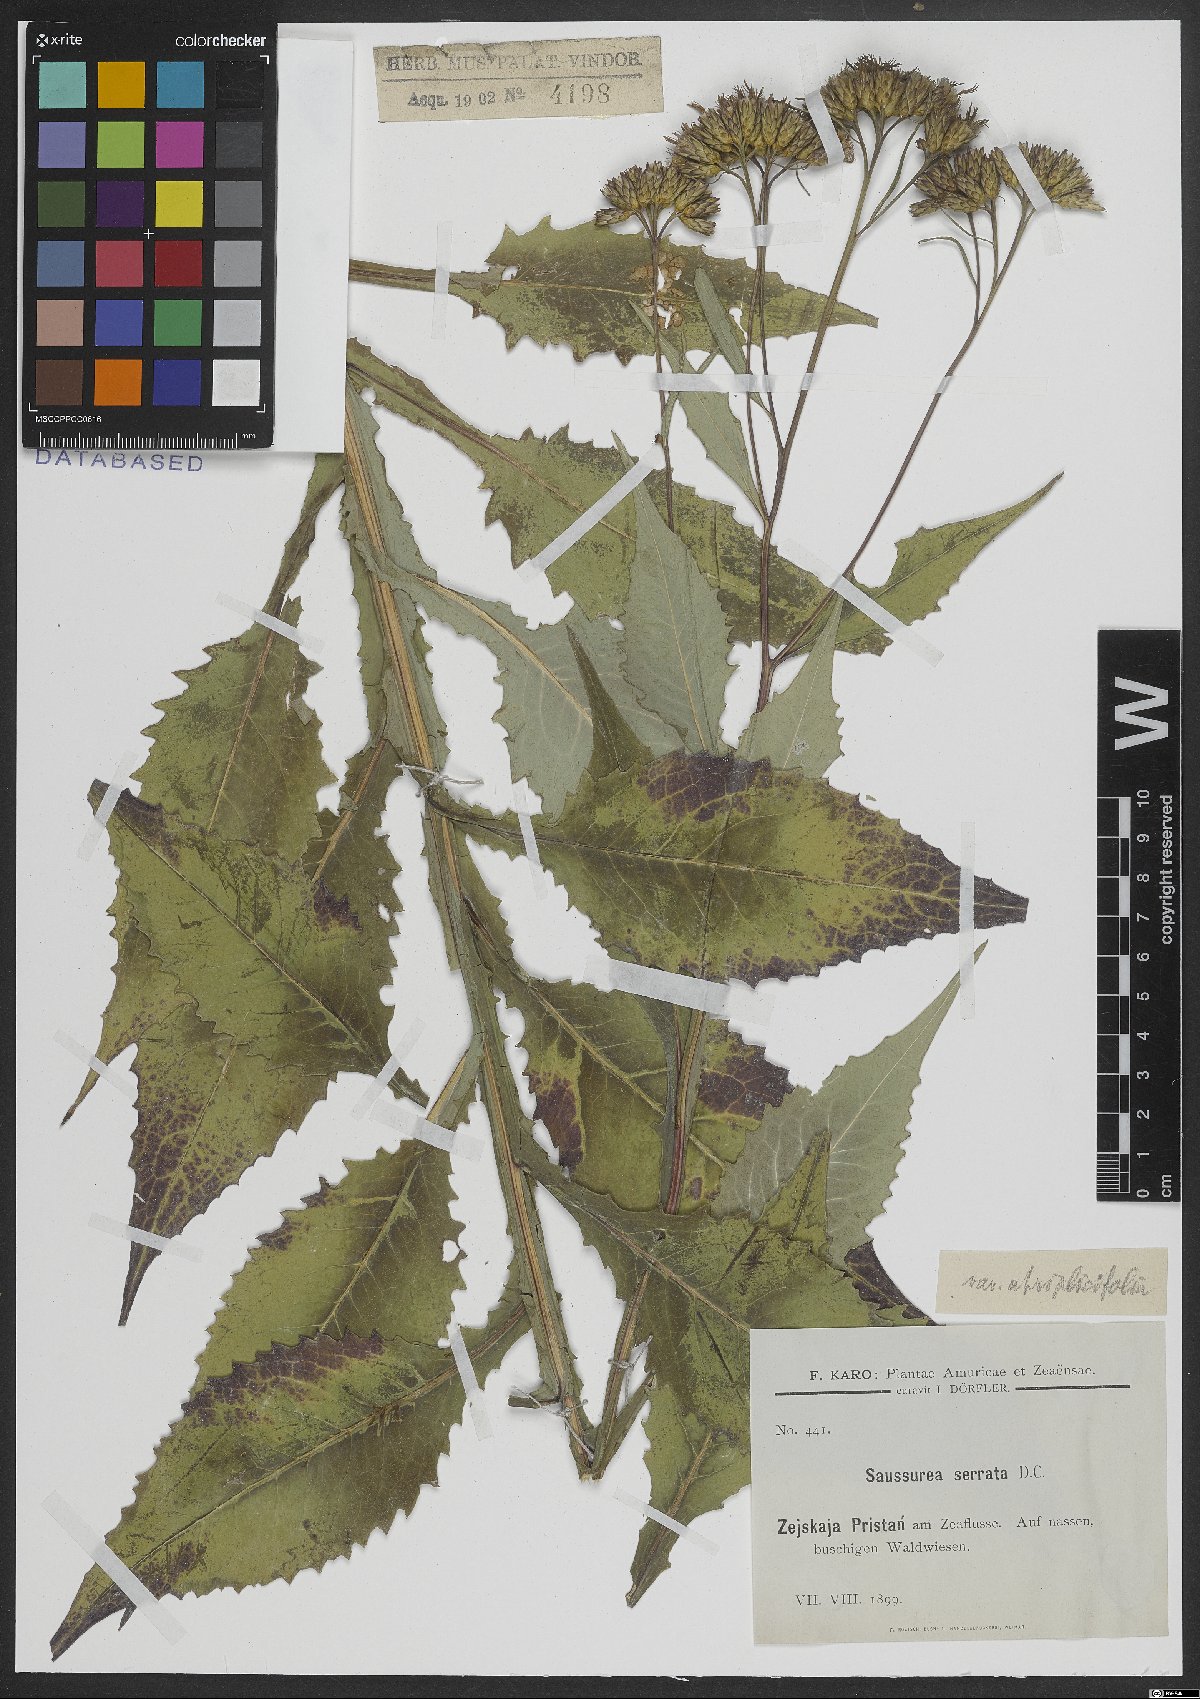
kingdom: Plantae
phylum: Tracheophyta
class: Magnoliopsida
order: Asterales
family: Asteraceae
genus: Saussurea
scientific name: Saussurea
